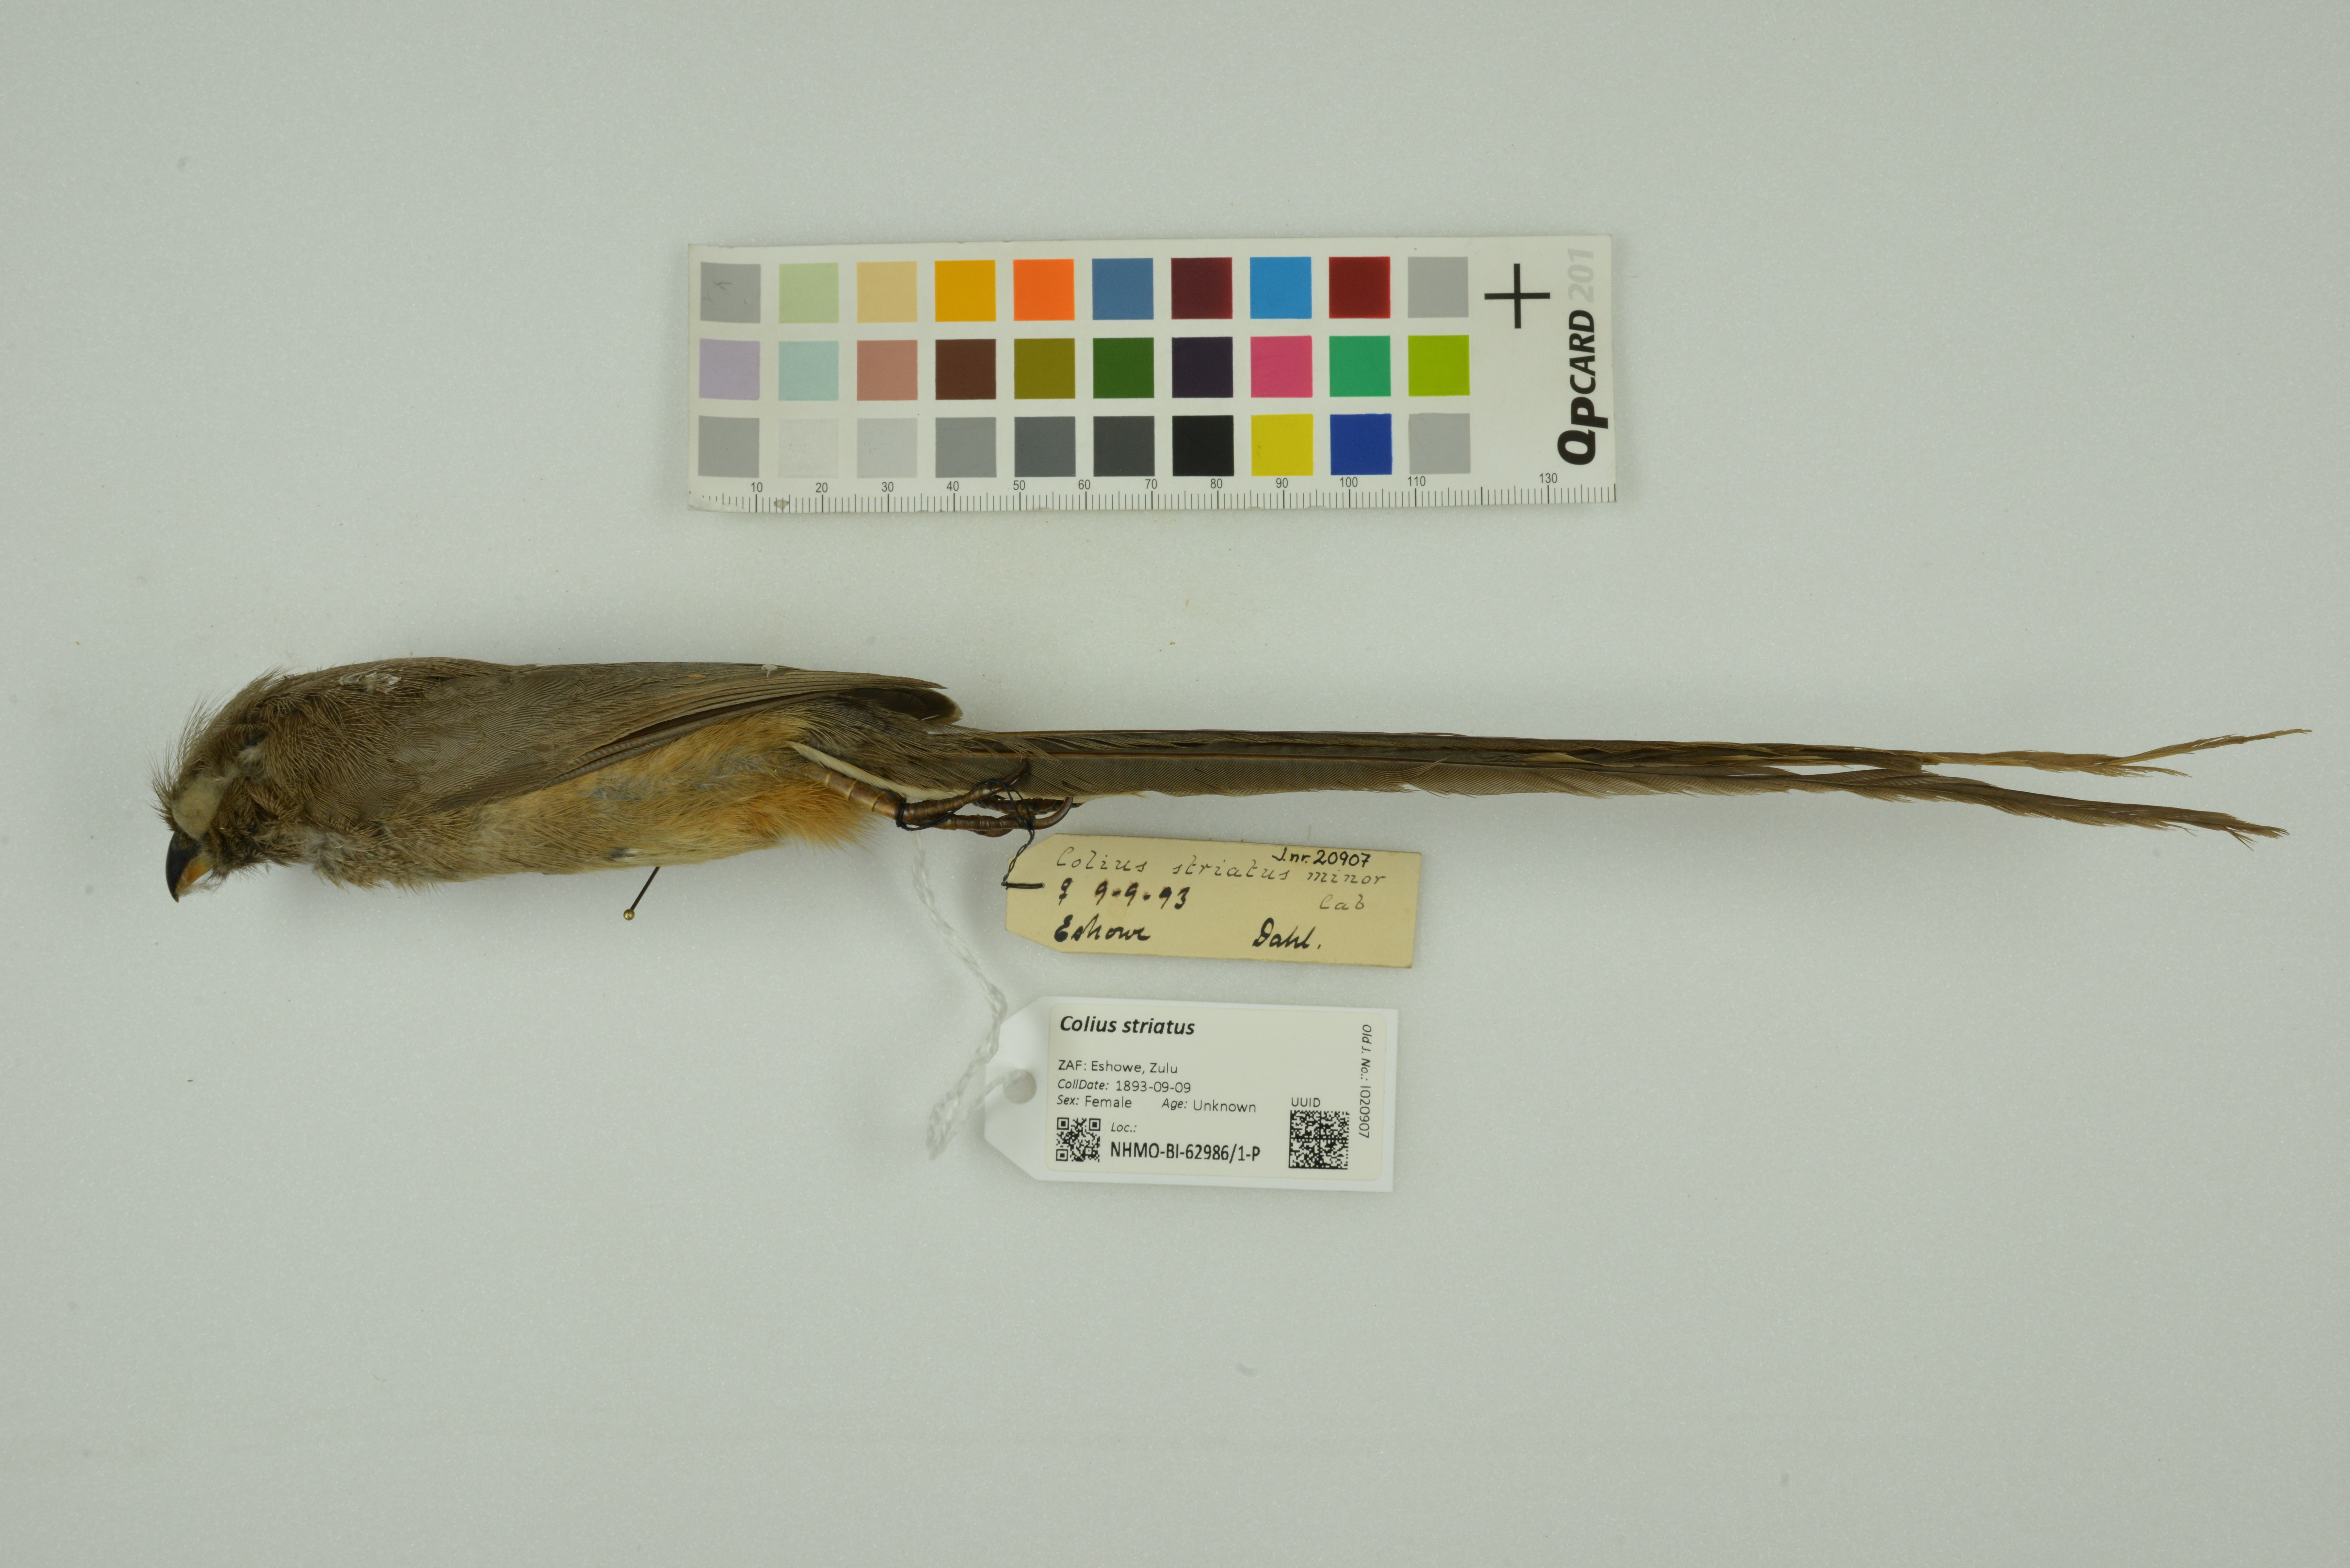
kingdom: Animalia
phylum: Chordata
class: Aves
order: Coliiformes
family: Coliidae
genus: Colius
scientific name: Colius striatus
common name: Speckled mousebird
